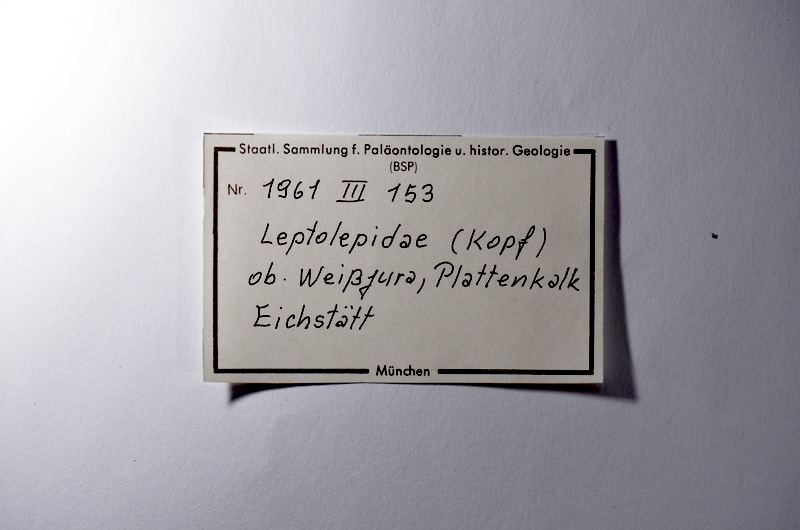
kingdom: Animalia
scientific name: Animalia
